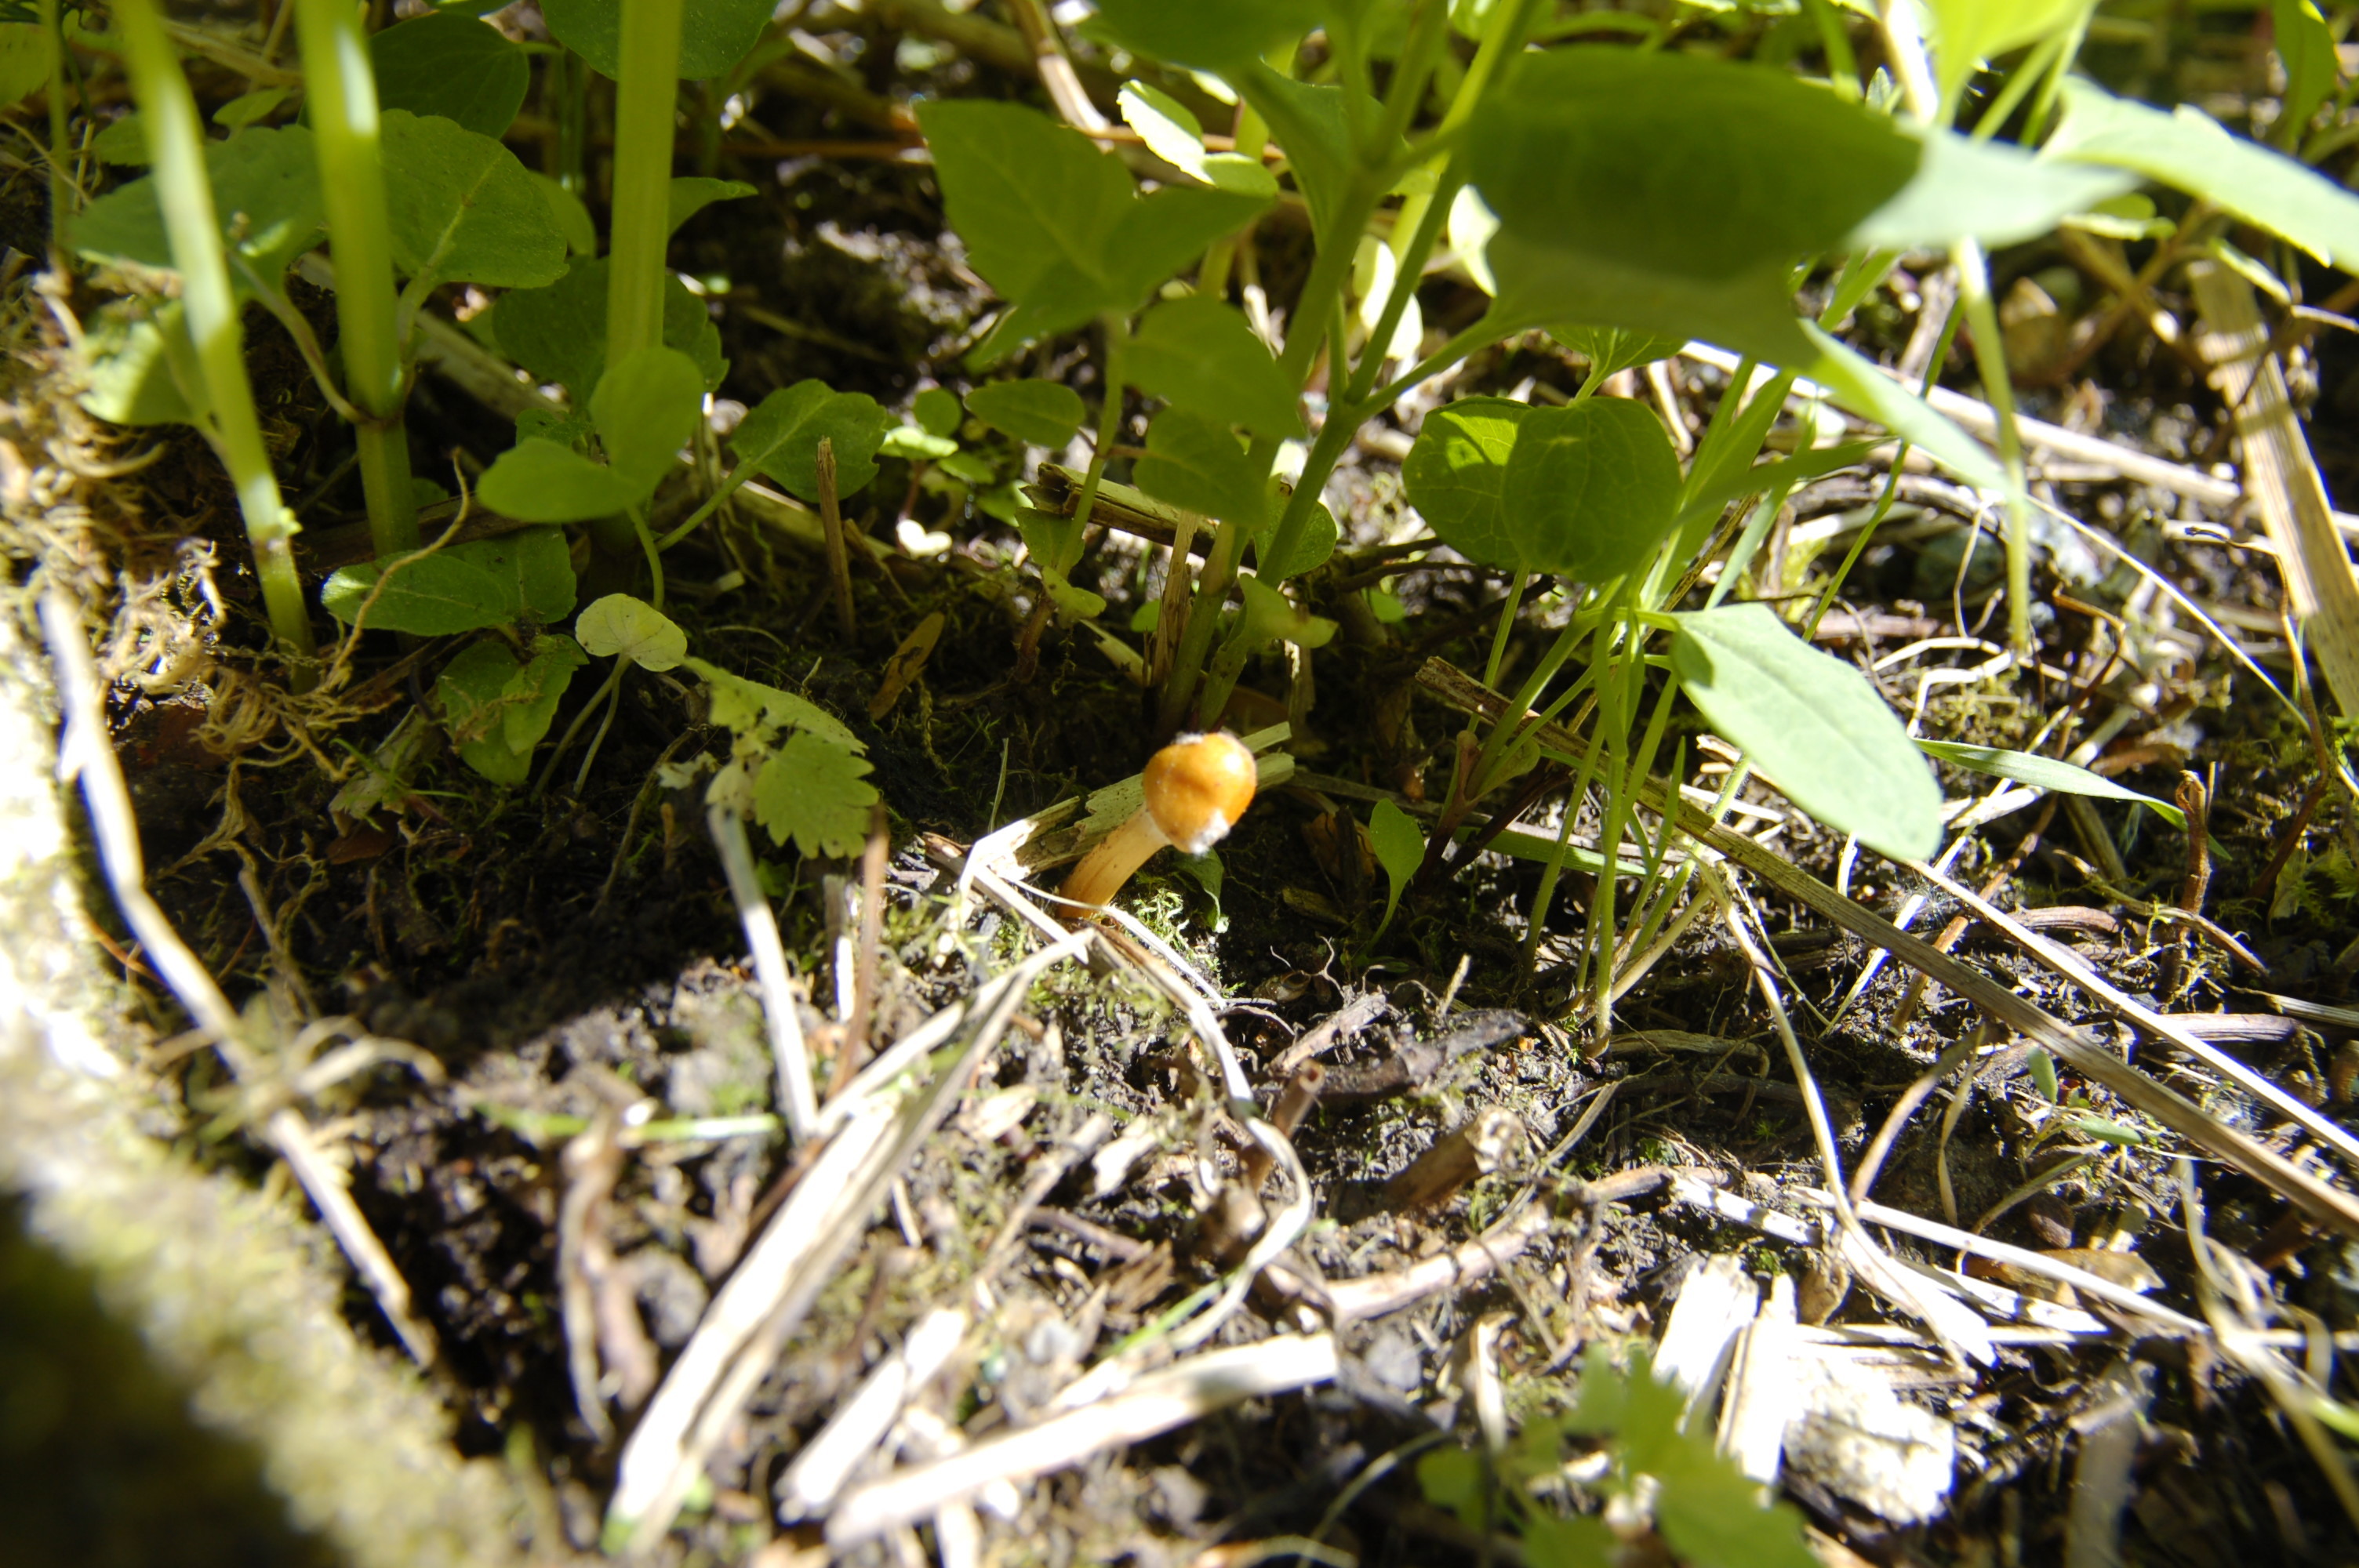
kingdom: Fungi
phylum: Ascomycota
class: Sordariomycetes
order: Hypocreales
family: Ophiocordycipitaceae
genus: Paraisaria
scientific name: Paraisaria gracilis
